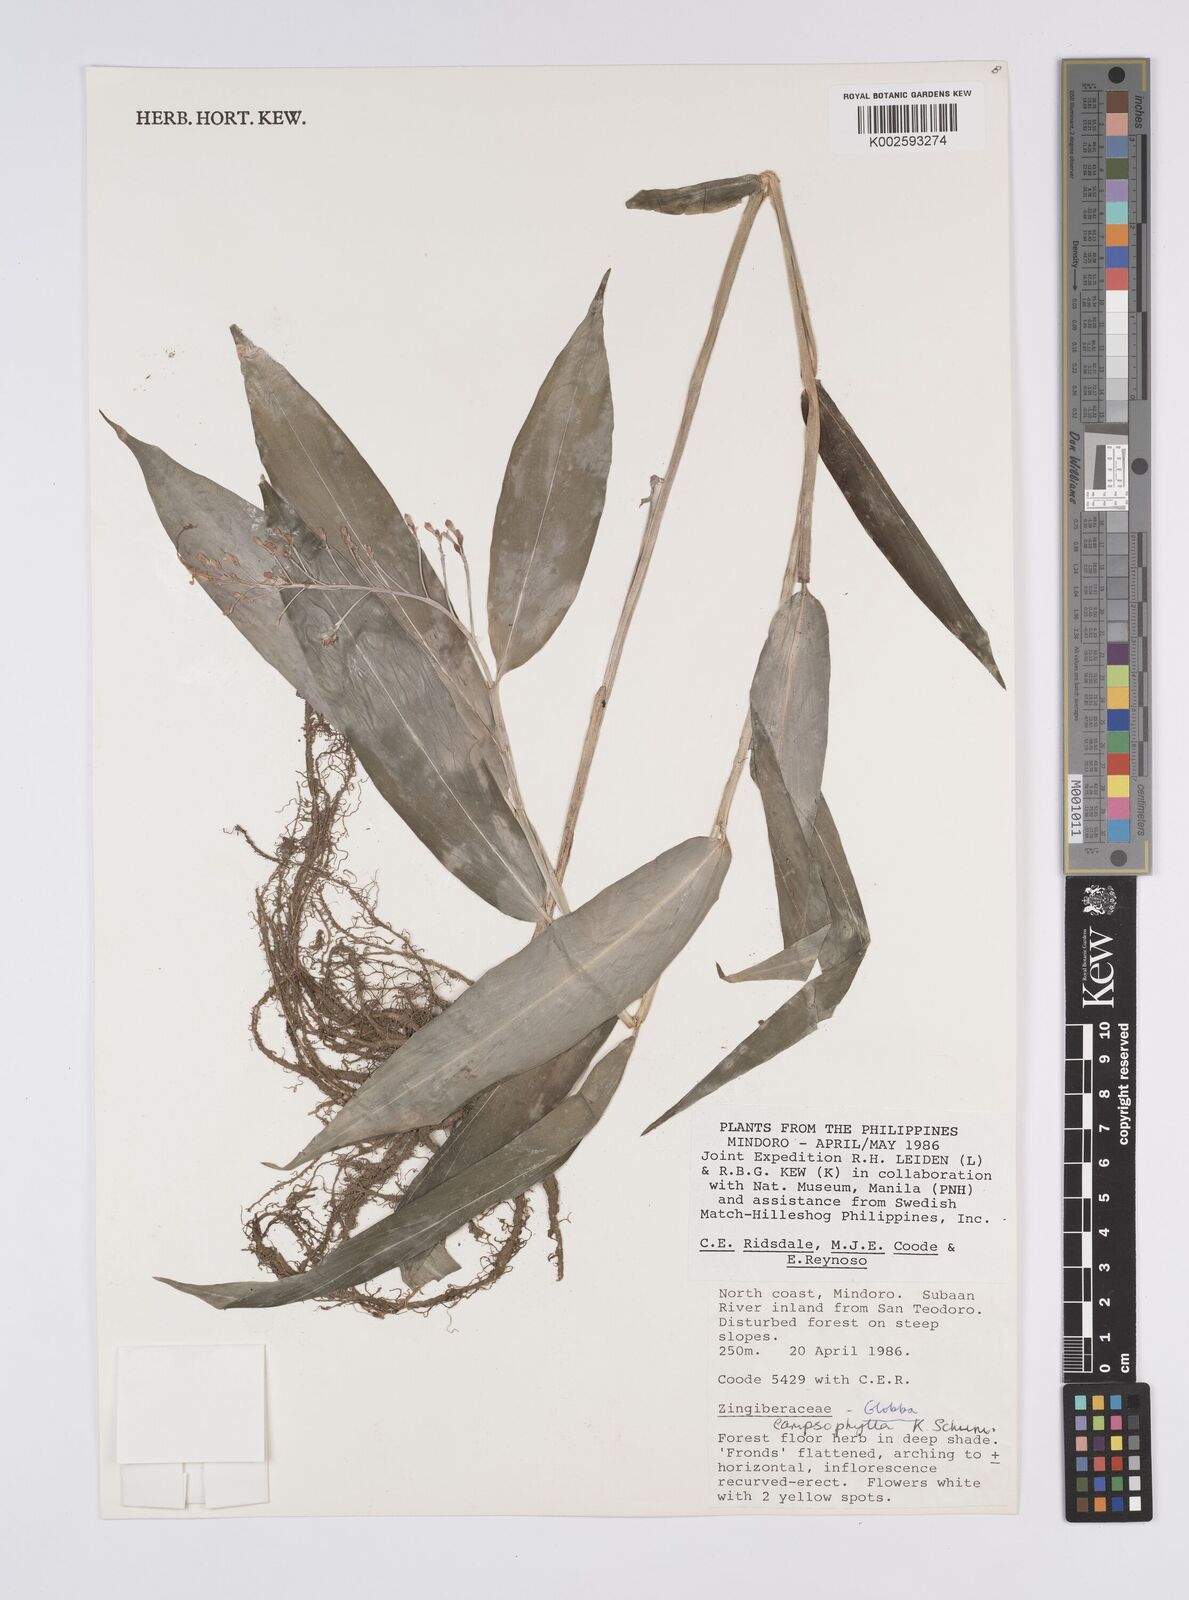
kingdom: Plantae
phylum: Tracheophyta
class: Liliopsida
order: Zingiberales
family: Zingiberaceae
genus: Globba
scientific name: Globba campsophylla
